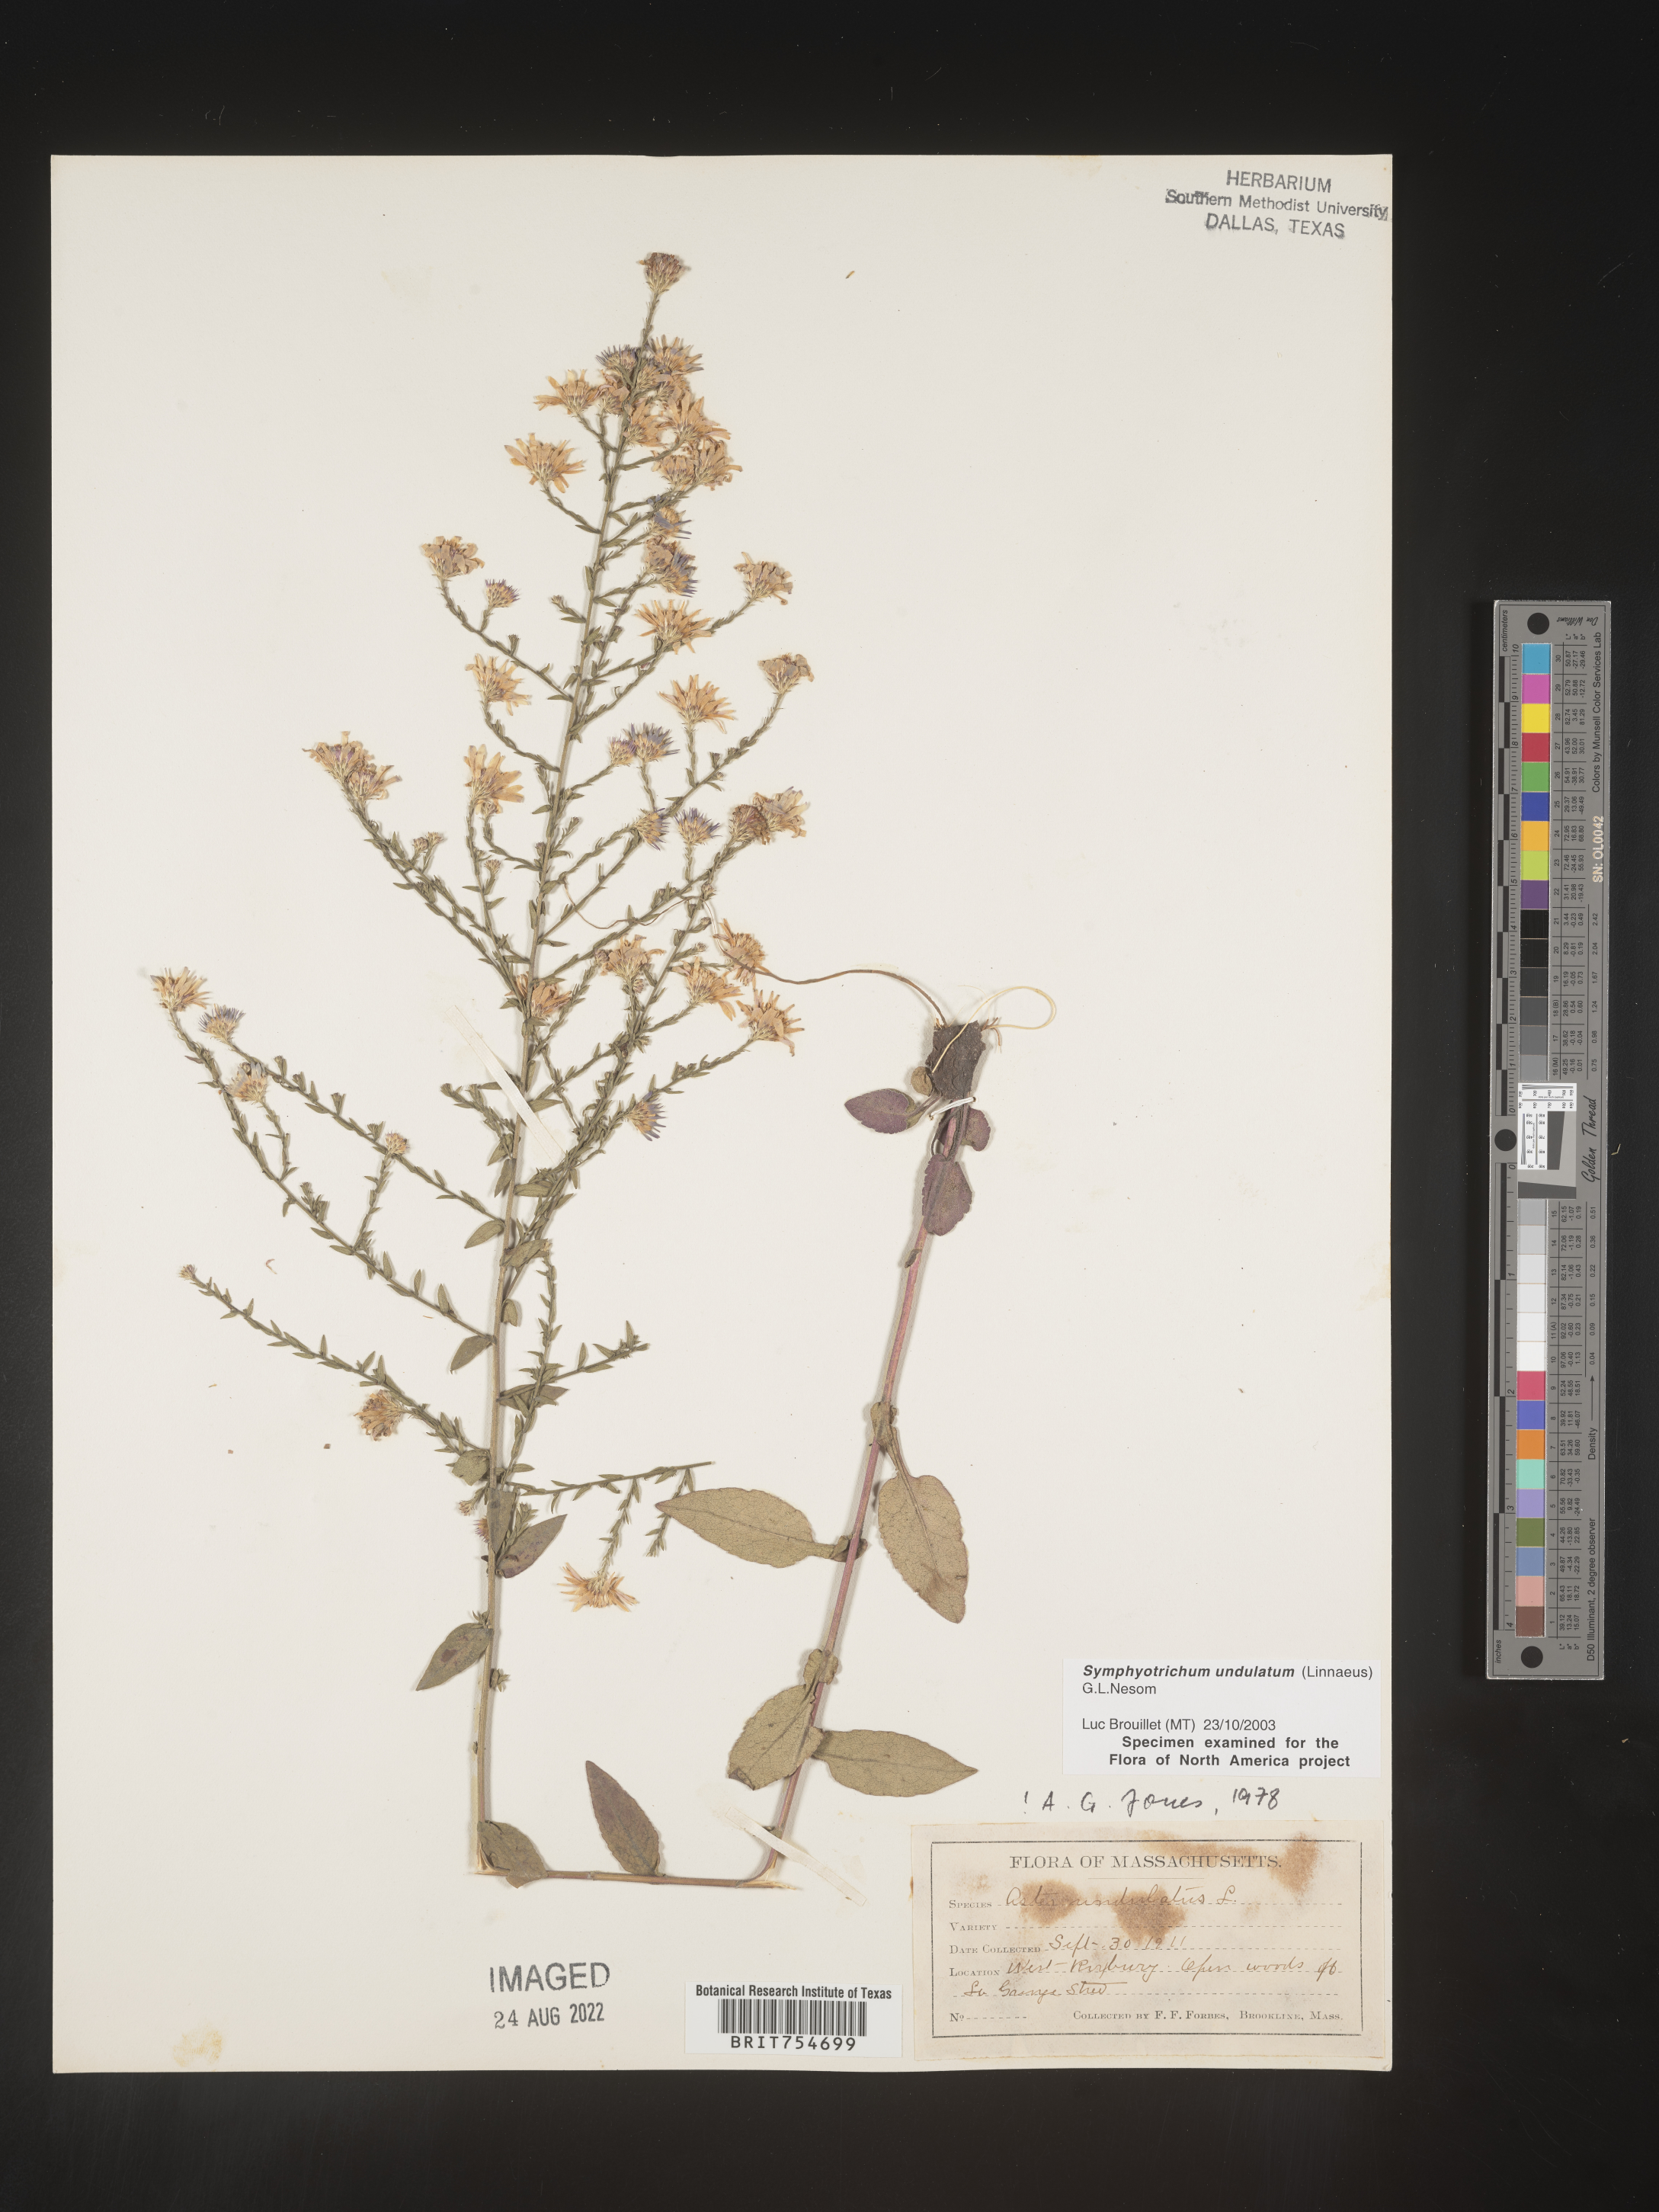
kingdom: Plantae
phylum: Tracheophyta
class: Magnoliopsida
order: Asterales
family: Asteraceae
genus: Symphyotrichum
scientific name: Symphyotrichum undulatum
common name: Clasping heart-leaf aster
